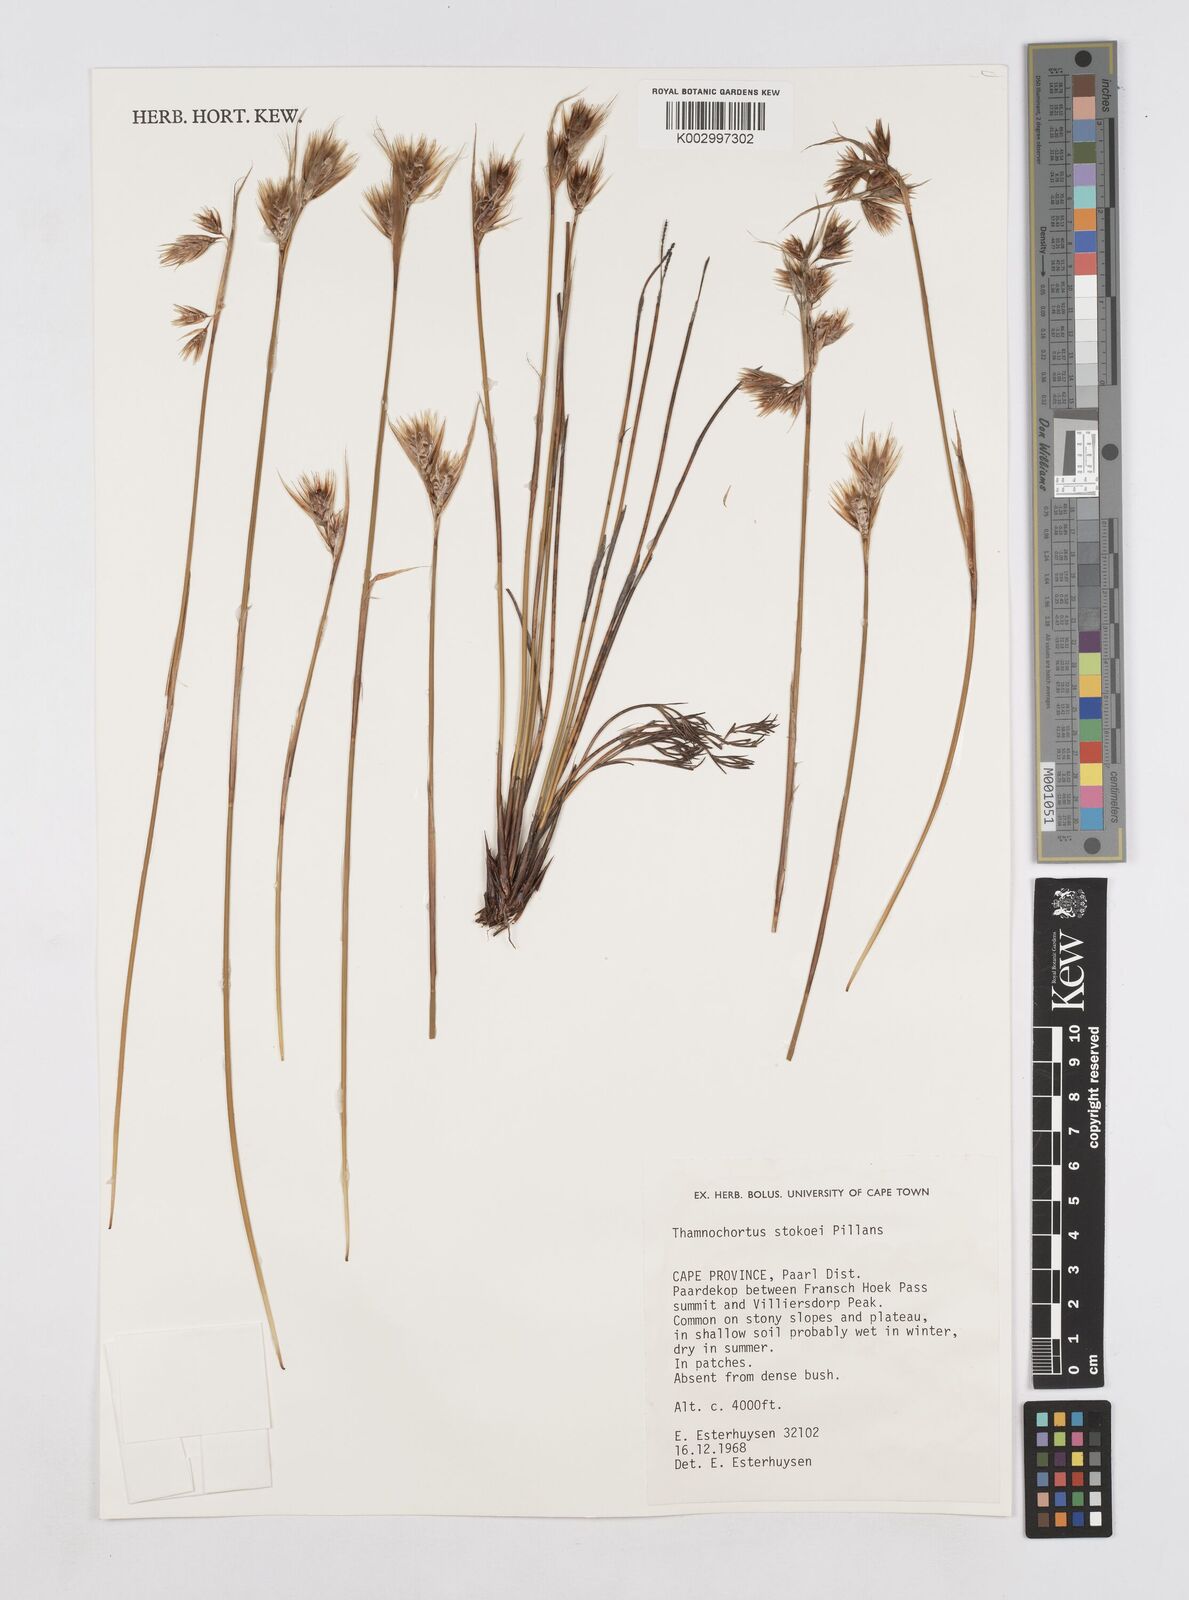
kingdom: Plantae
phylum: Tracheophyta
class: Liliopsida
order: Poales
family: Restionaceae
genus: Thamnochortus
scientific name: Thamnochortus stokoei
